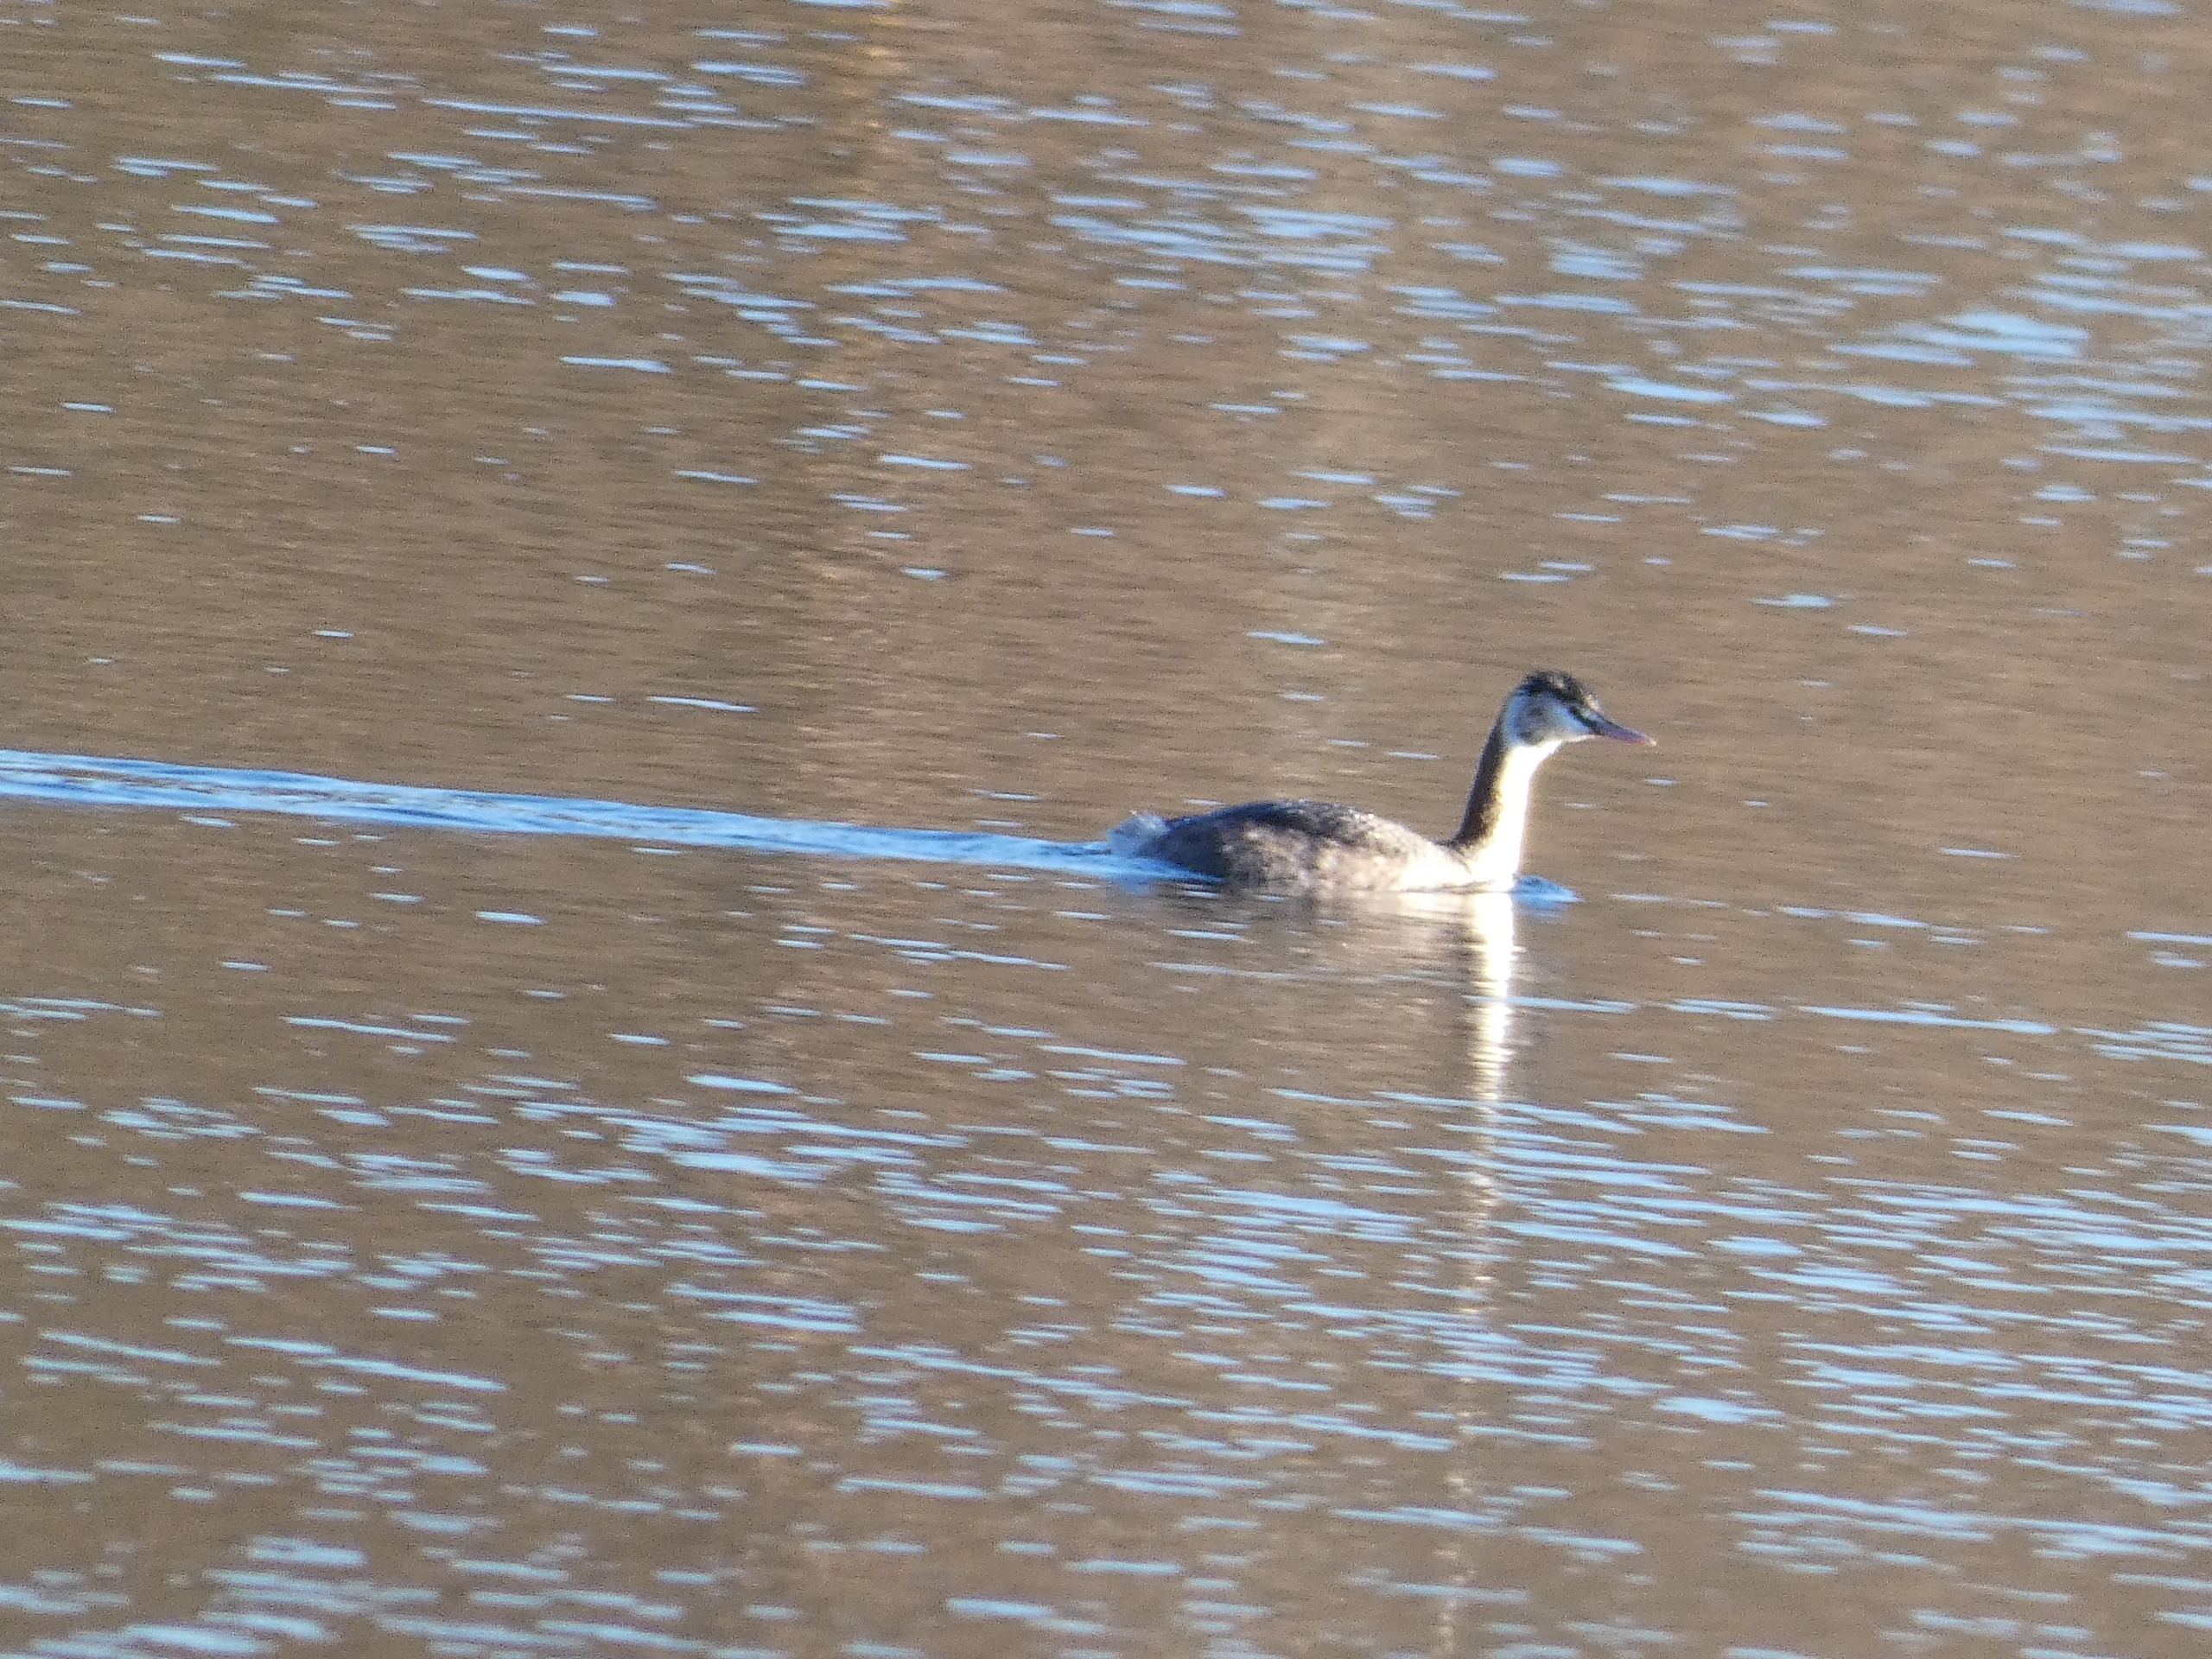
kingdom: Animalia
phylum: Chordata
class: Aves
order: Podicipediformes
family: Podicipedidae
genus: Podiceps
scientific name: Podiceps cristatus
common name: Toppet lappedykker
